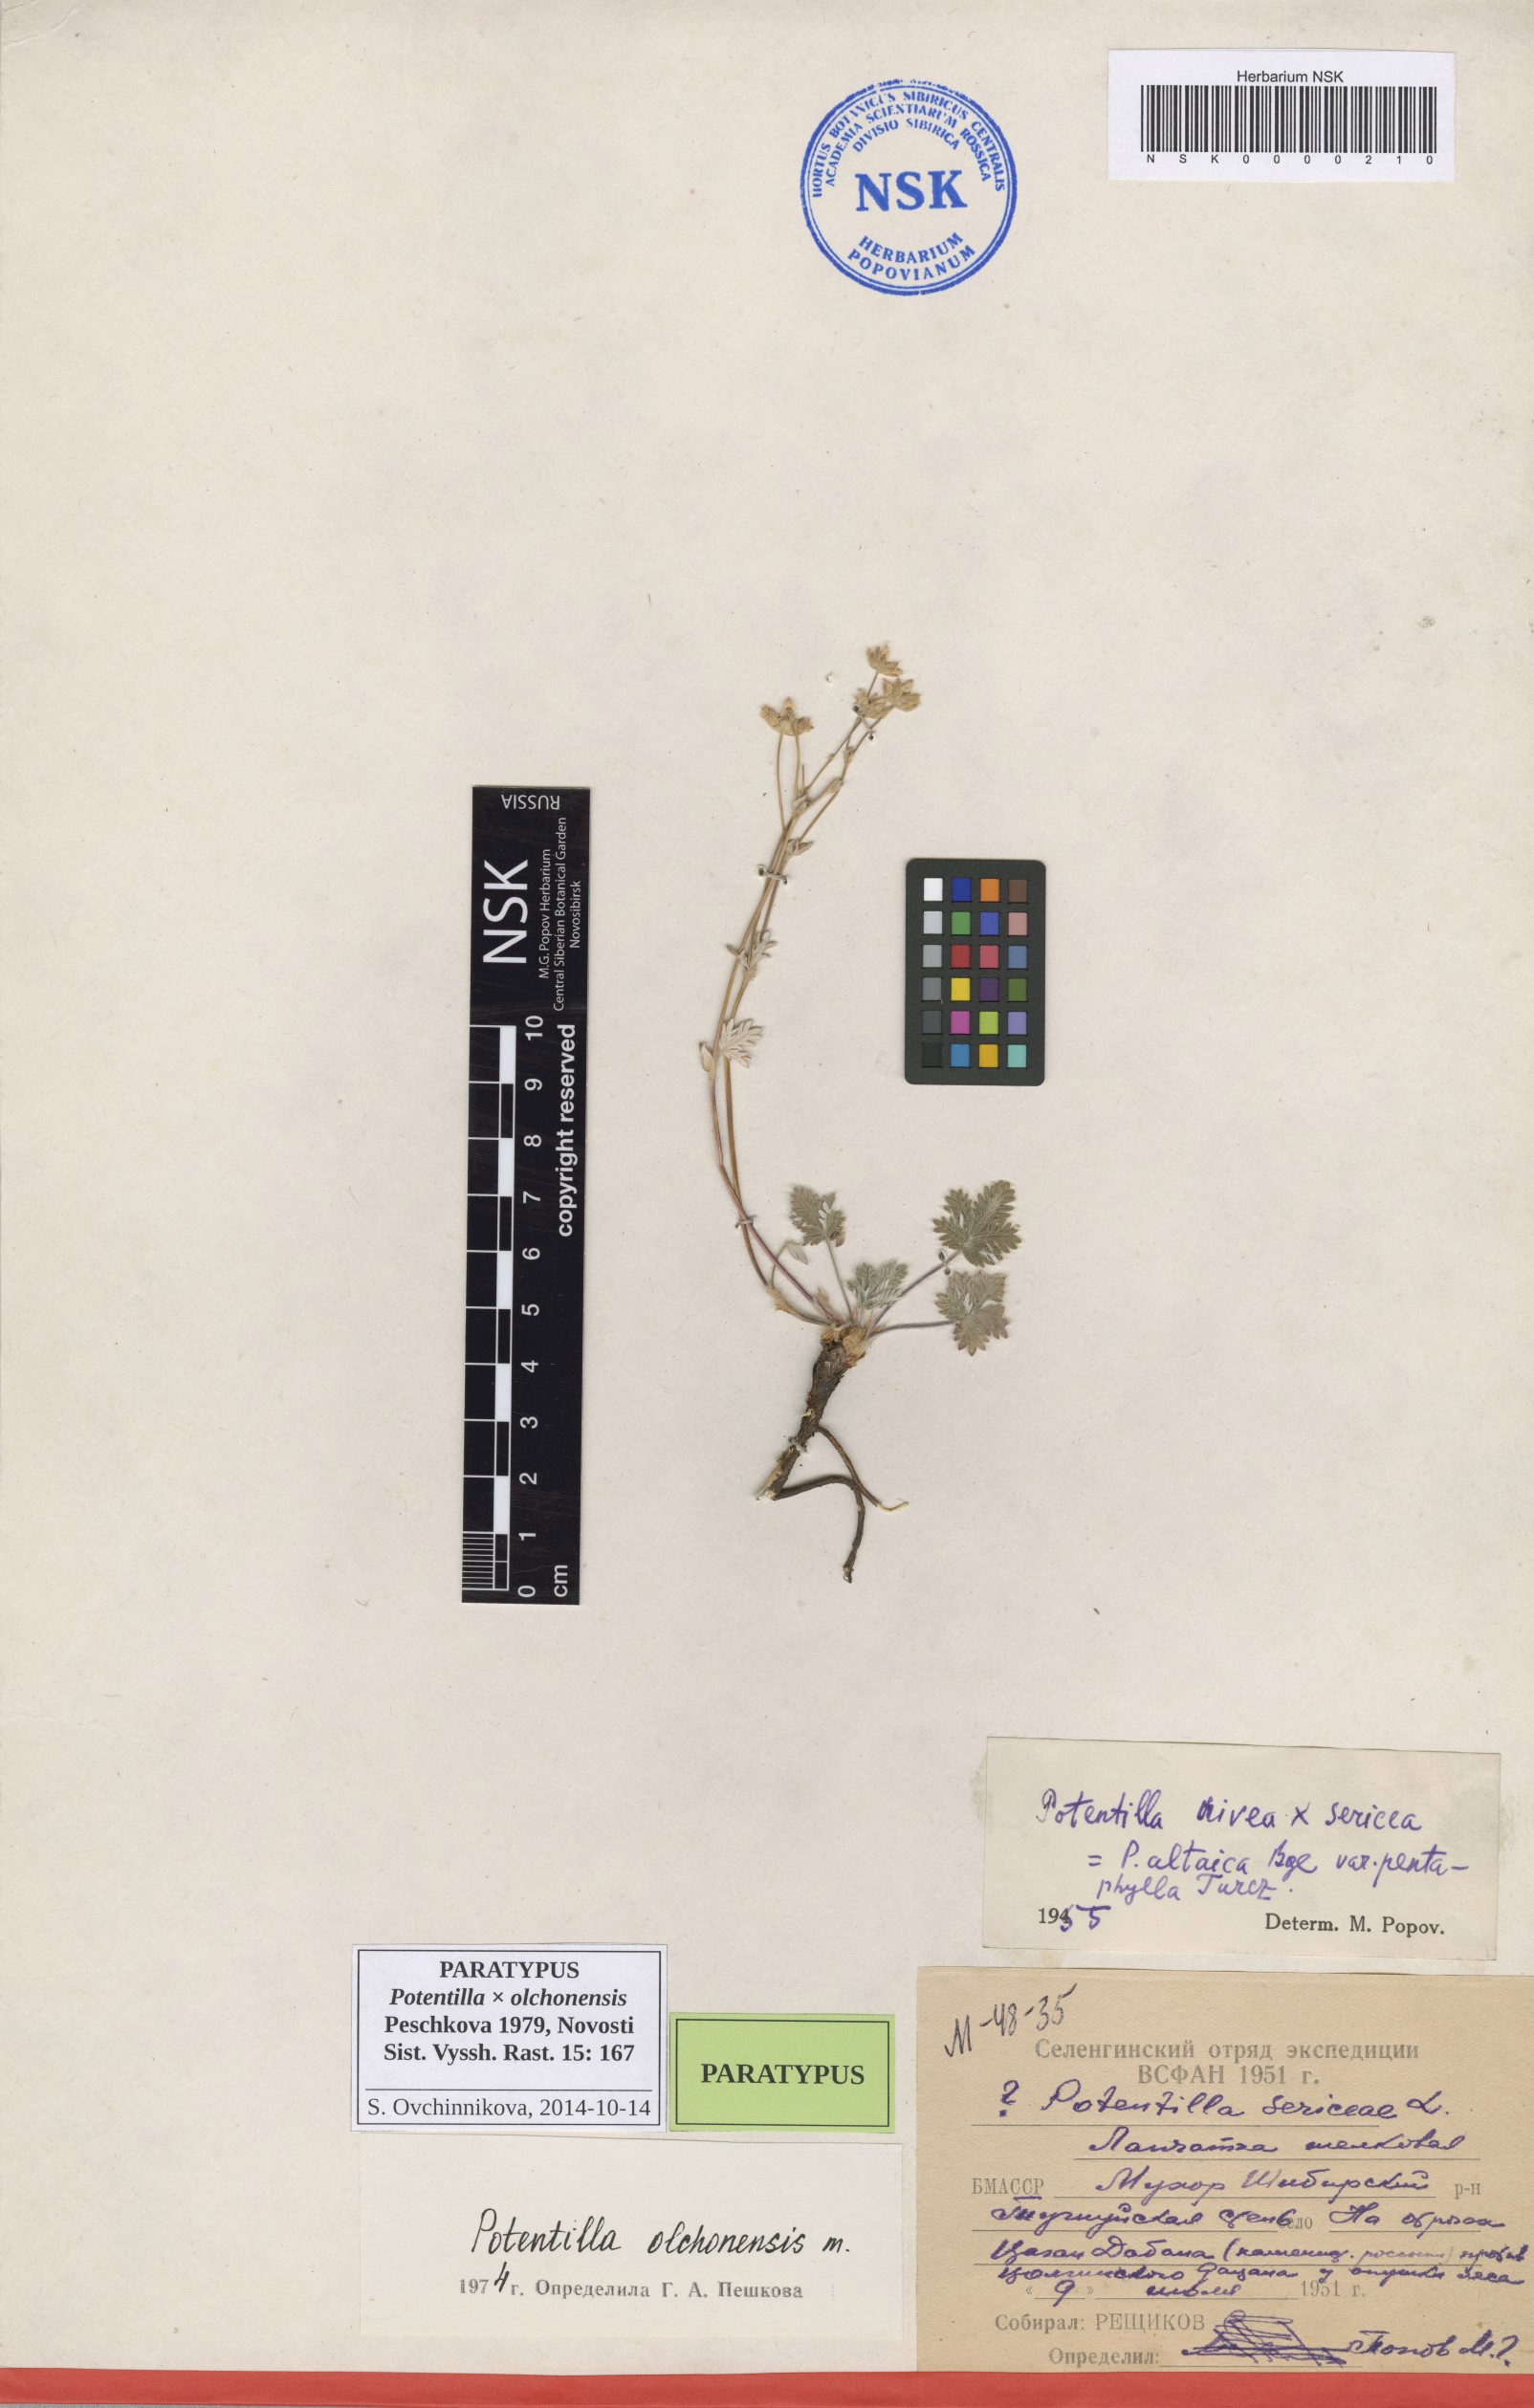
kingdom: Plantae
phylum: Tracheophyta
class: Magnoliopsida
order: Rosales
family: Rosaceae
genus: Potentilla
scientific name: Potentilla olchonensis
